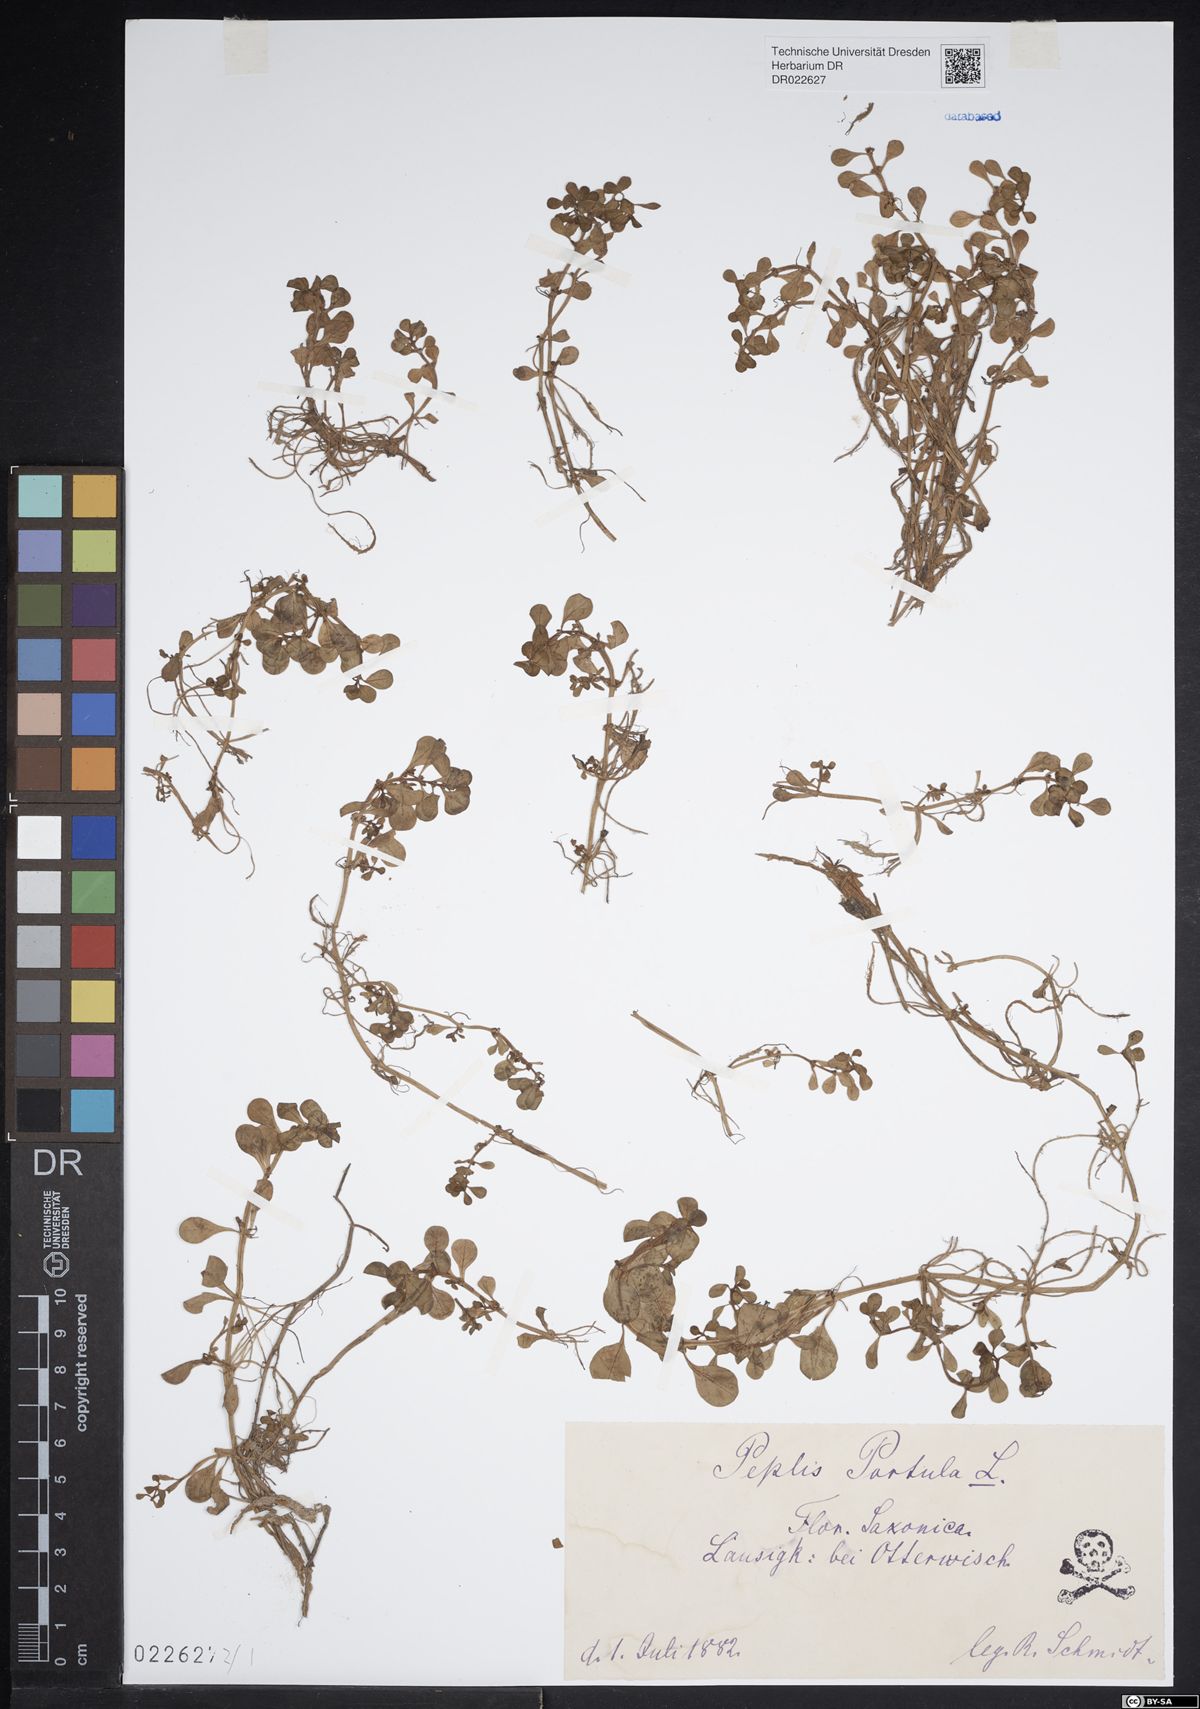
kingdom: Plantae
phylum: Tracheophyta
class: Magnoliopsida
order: Myrtales
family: Lythraceae
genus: Lythrum
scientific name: Lythrum portula
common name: Water purslane
